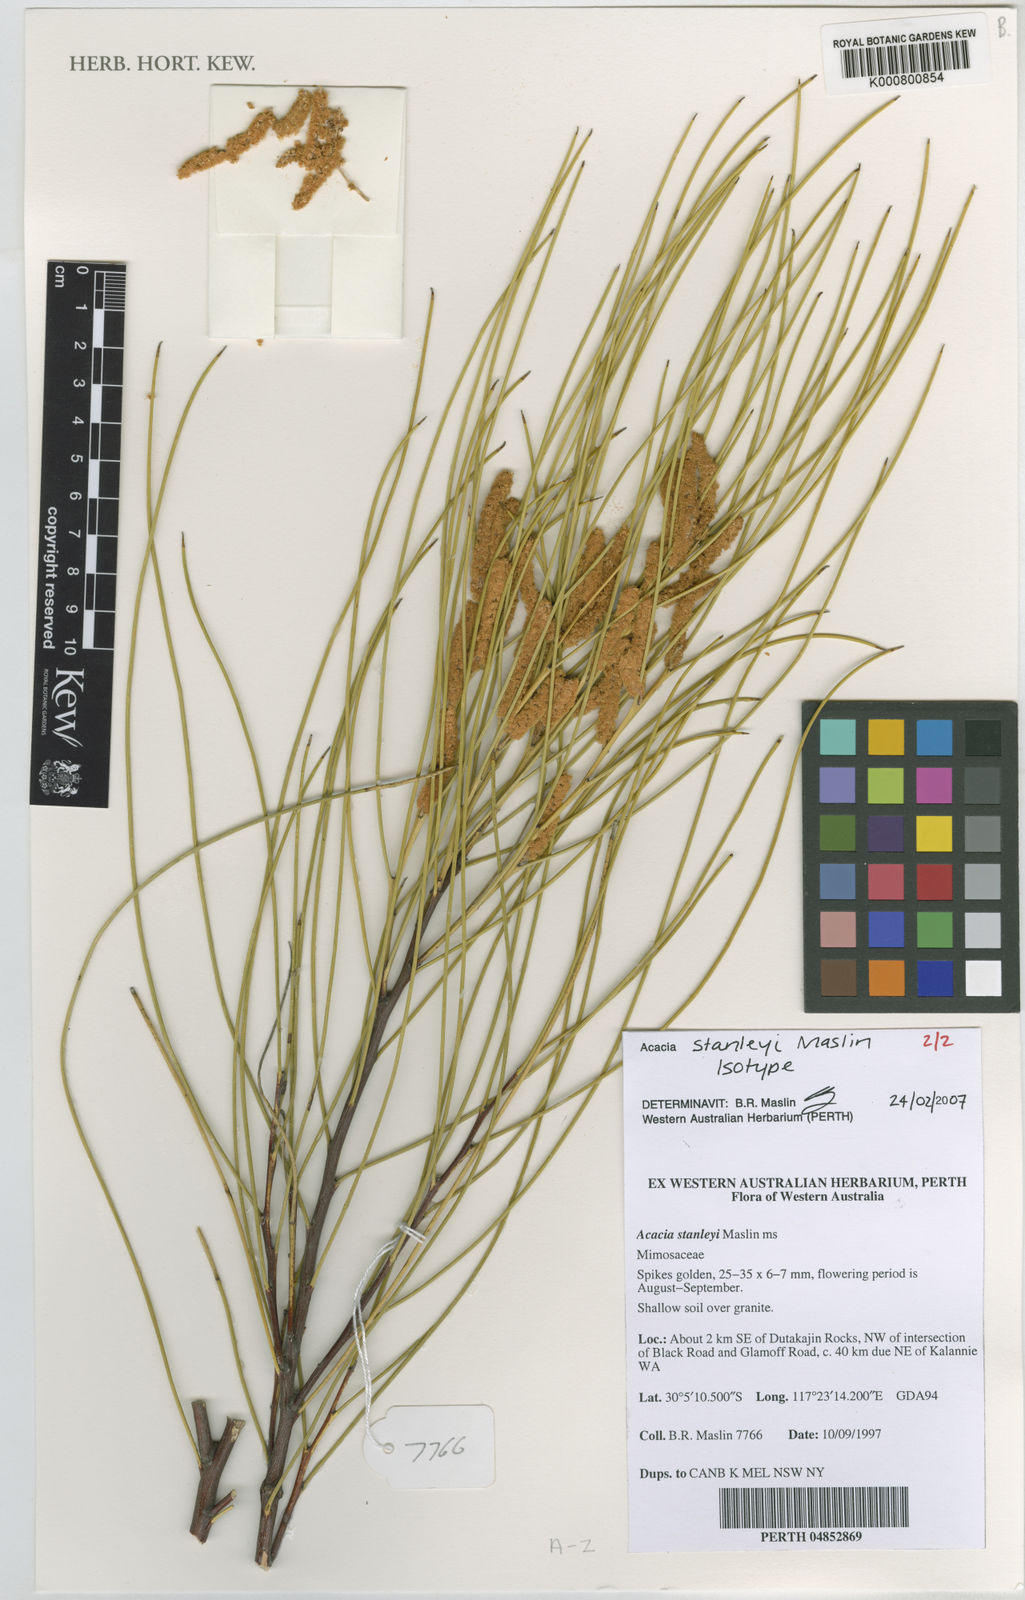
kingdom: Plantae
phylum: Tracheophyta
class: Magnoliopsida
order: Fabales
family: Fabaceae
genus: Acacia
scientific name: Acacia stanleyi
